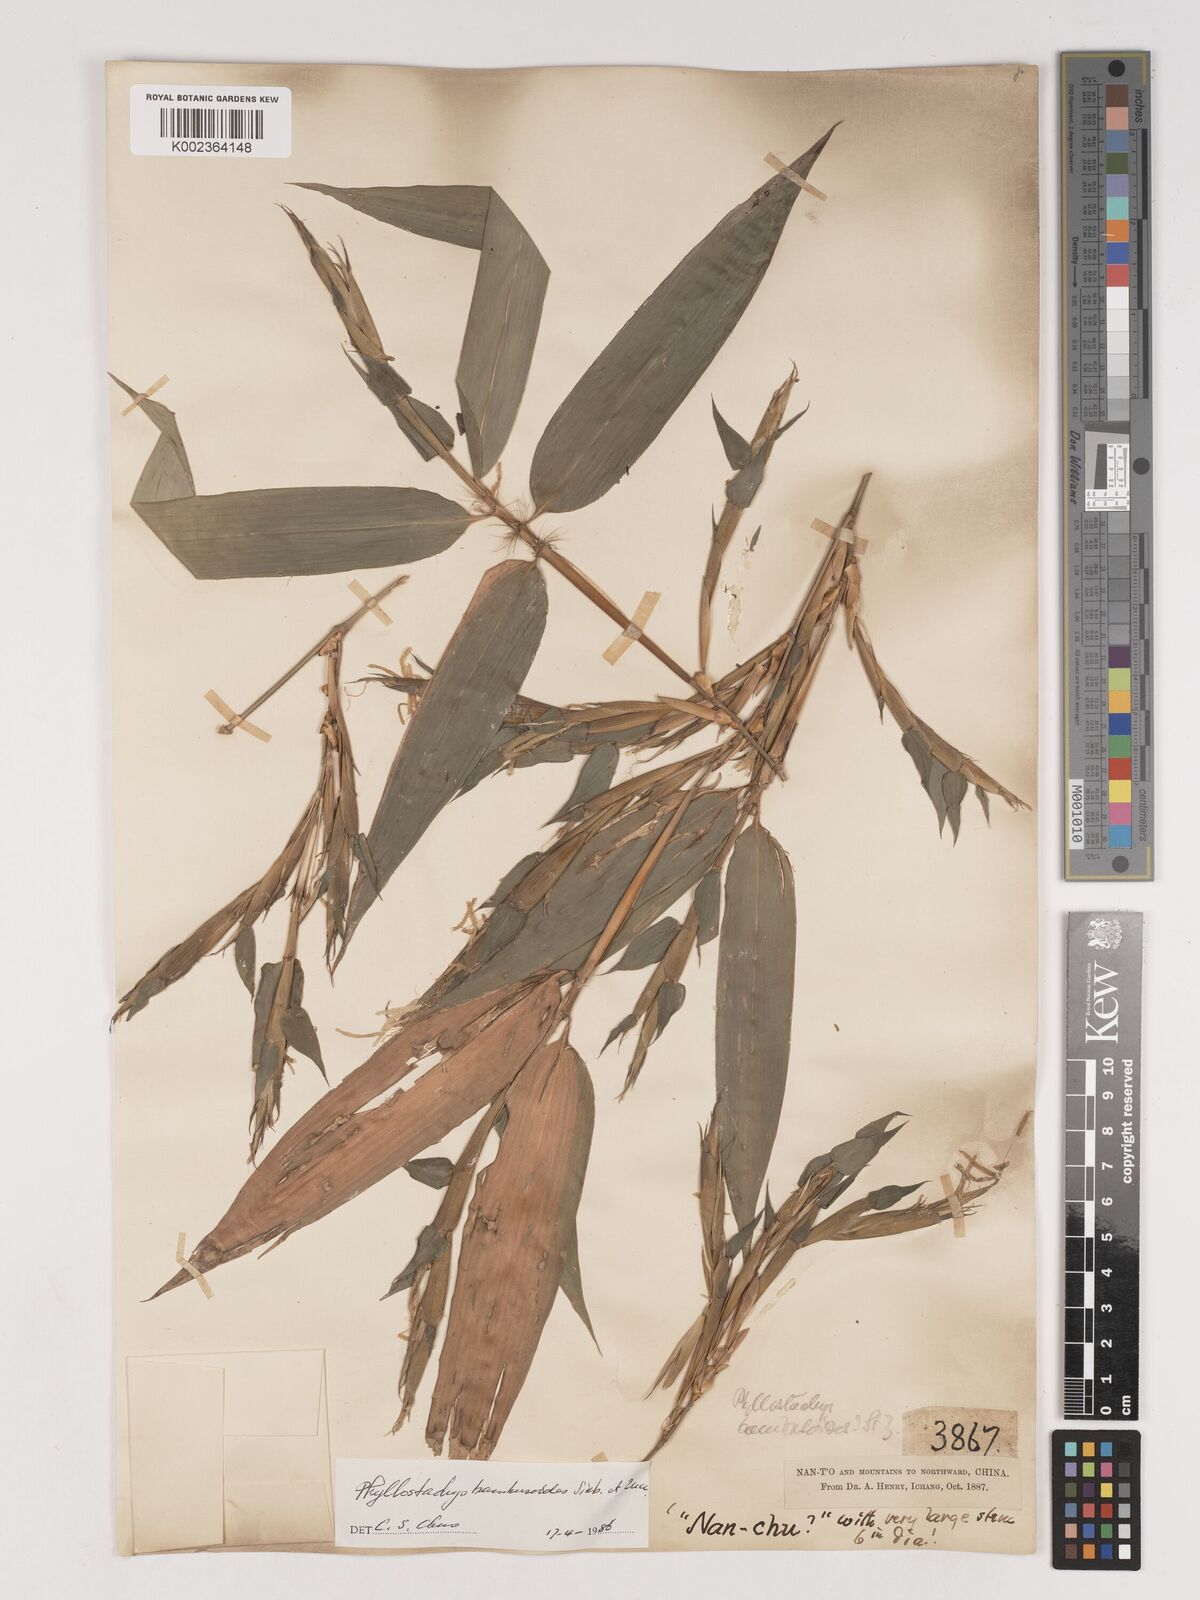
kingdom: Plantae
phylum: Tracheophyta
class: Liliopsida
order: Poales
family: Poaceae
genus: Phyllostachys
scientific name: Phyllostachys reticulata
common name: Bamboo
